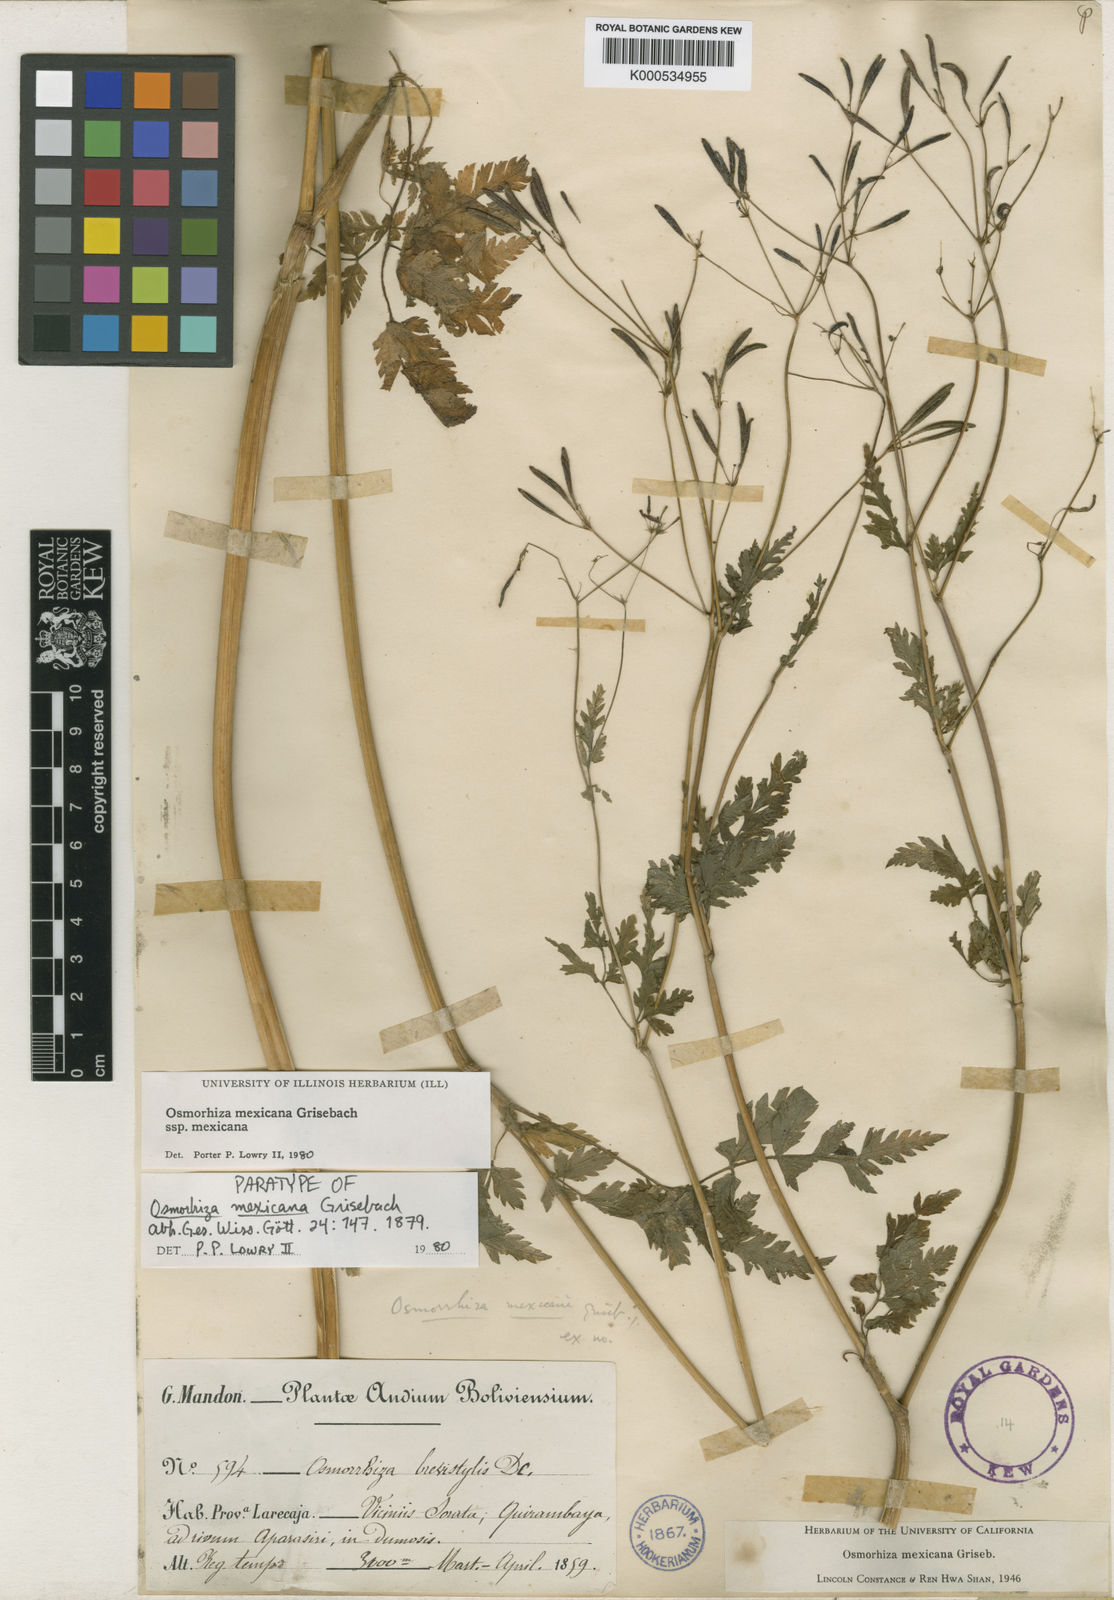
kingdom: Plantae
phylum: Tracheophyta
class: Magnoliopsida
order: Apiales
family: Apiaceae
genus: Osmorhiza
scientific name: Osmorhiza mexicana
